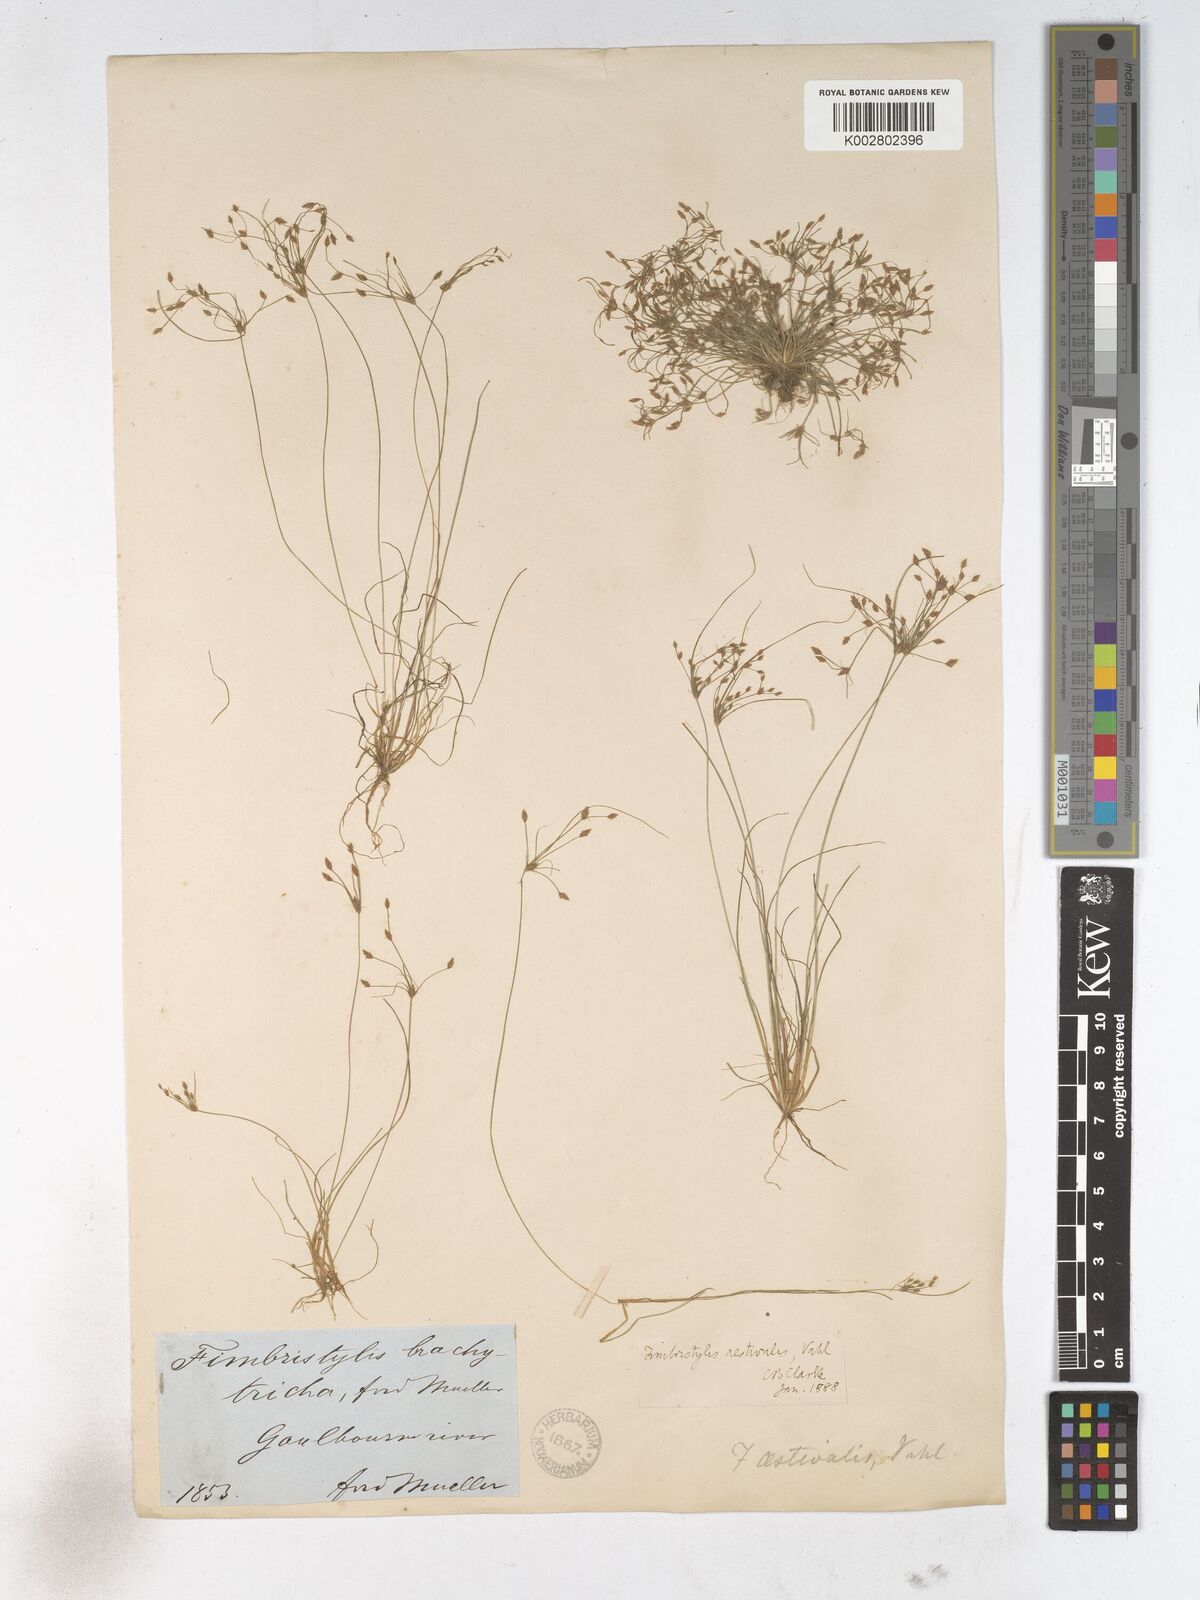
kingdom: Plantae
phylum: Tracheophyta
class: Liliopsida
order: Poales
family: Cyperaceae
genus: Fimbristylis
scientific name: Fimbristylis aestivalis
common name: Summer fimbry
